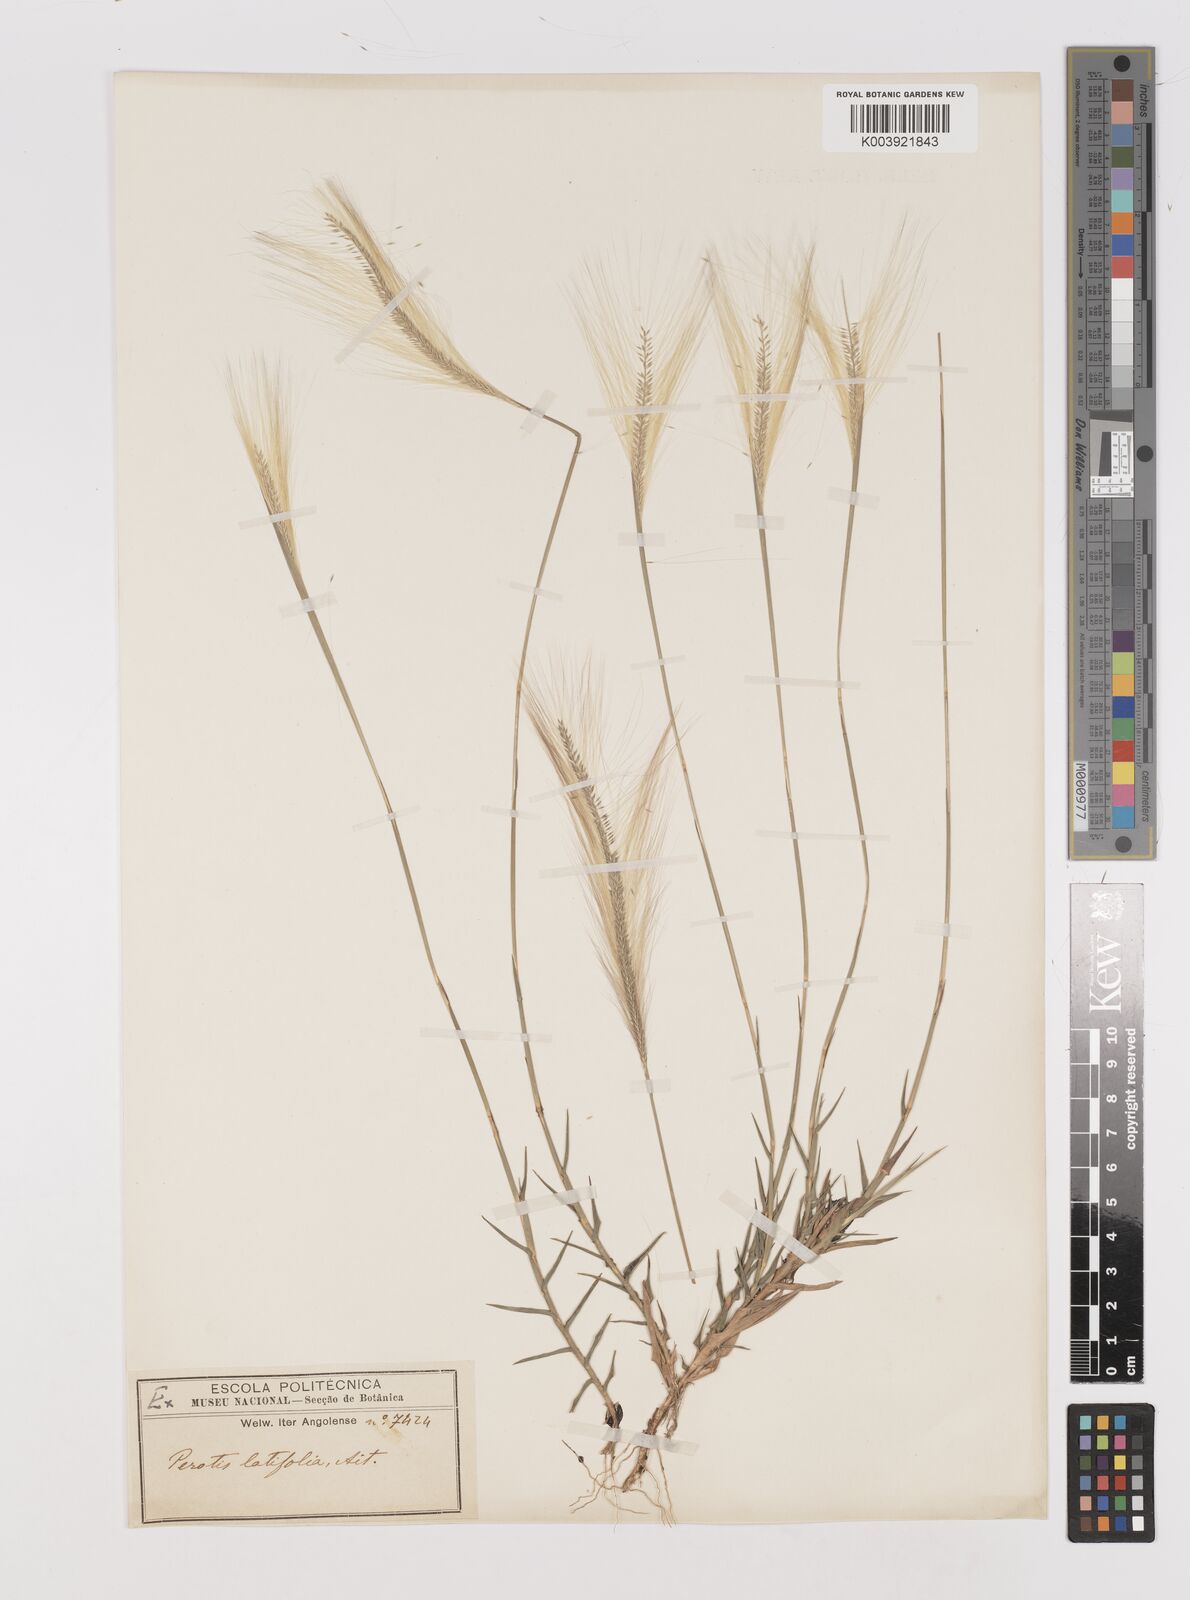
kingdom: Plantae
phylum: Tracheophyta
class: Liliopsida
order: Poales
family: Poaceae
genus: Perotis
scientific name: Perotis leptopus
